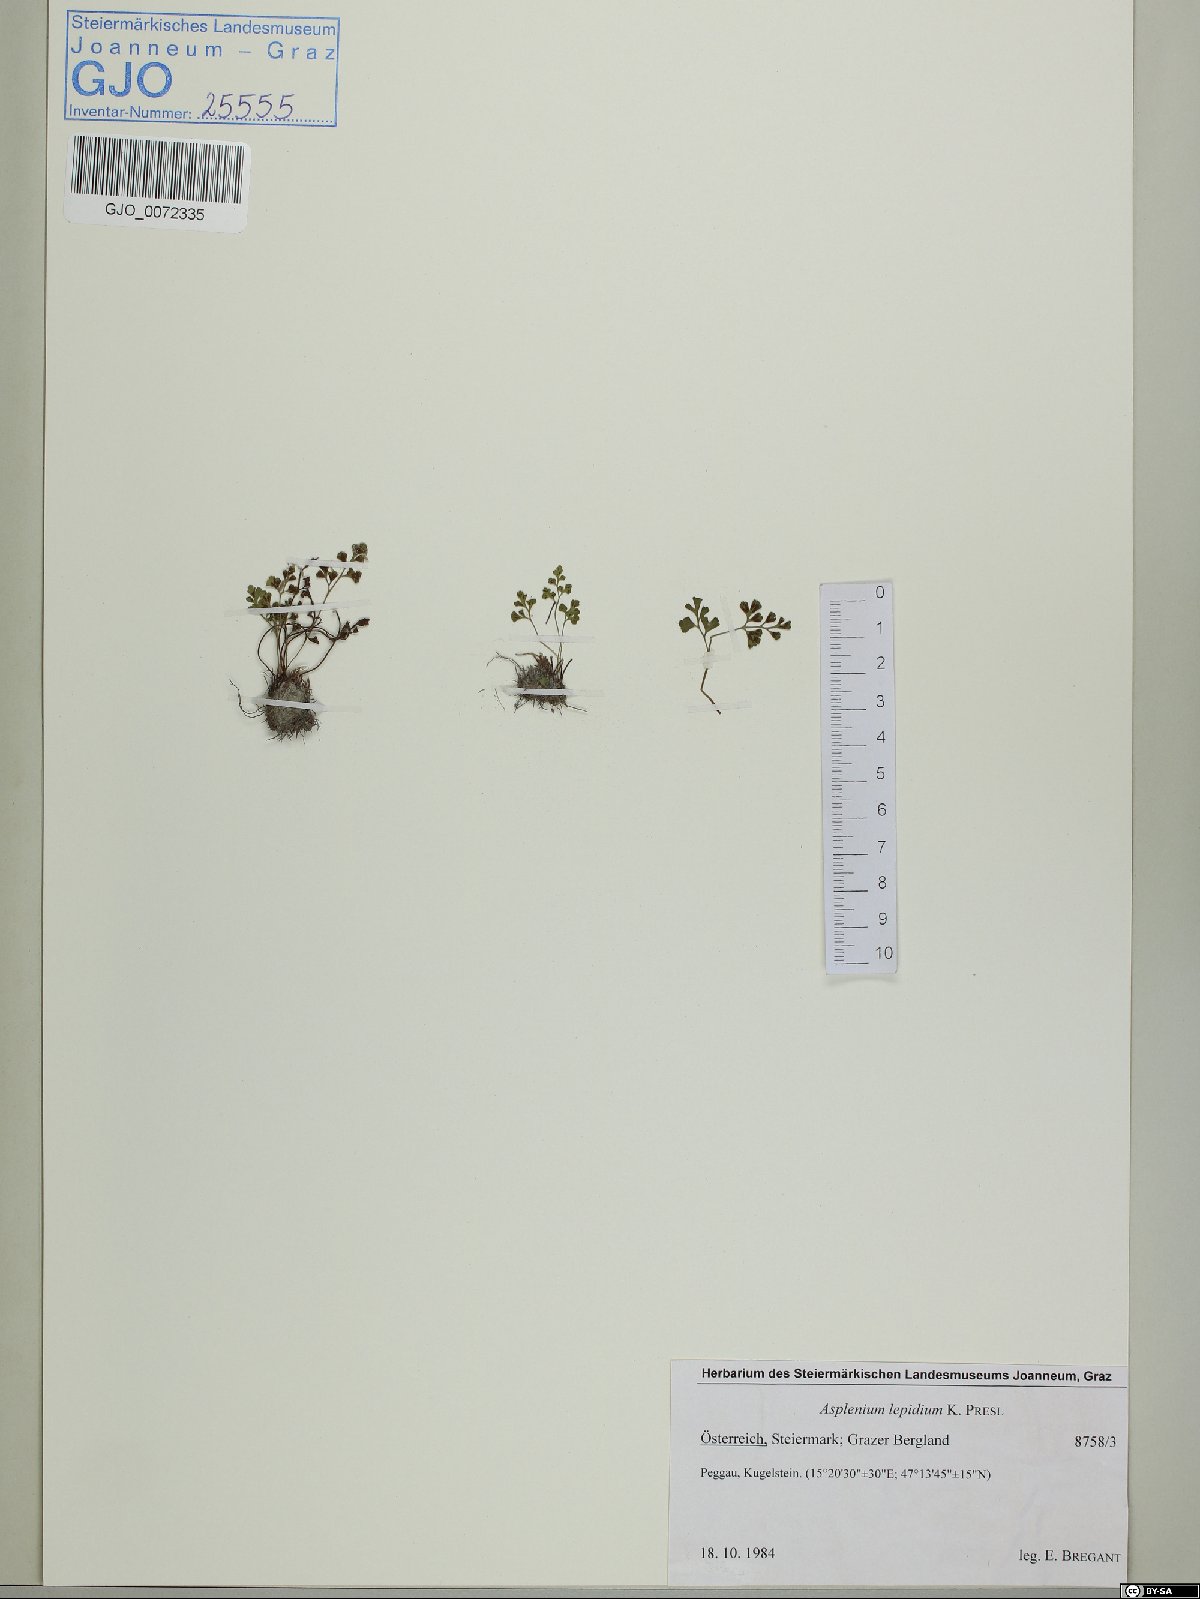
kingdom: Plantae
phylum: Tracheophyta
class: Polypodiopsida
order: Polypodiales
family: Aspleniaceae
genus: Asplenium
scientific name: Asplenium lepidum
